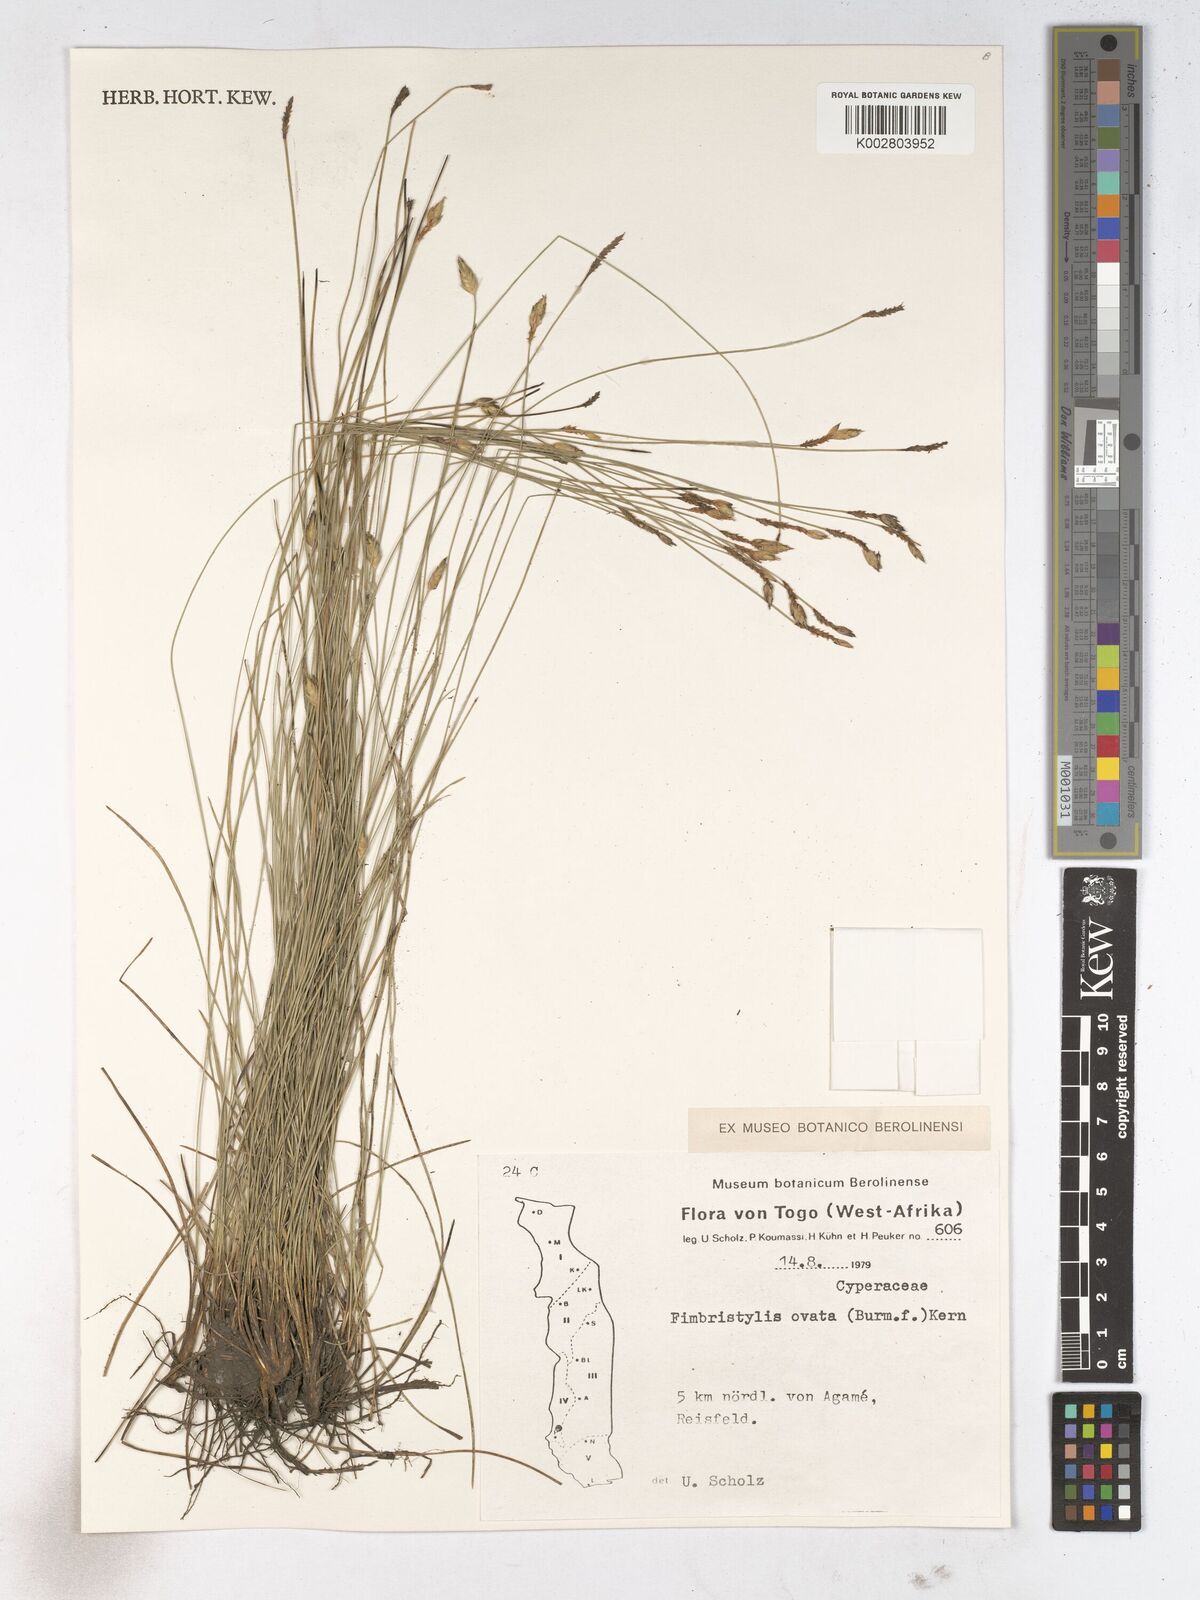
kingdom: Plantae
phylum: Tracheophyta
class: Liliopsida
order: Poales
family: Cyperaceae
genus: Abildgaardia
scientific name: Abildgaardia ovata
